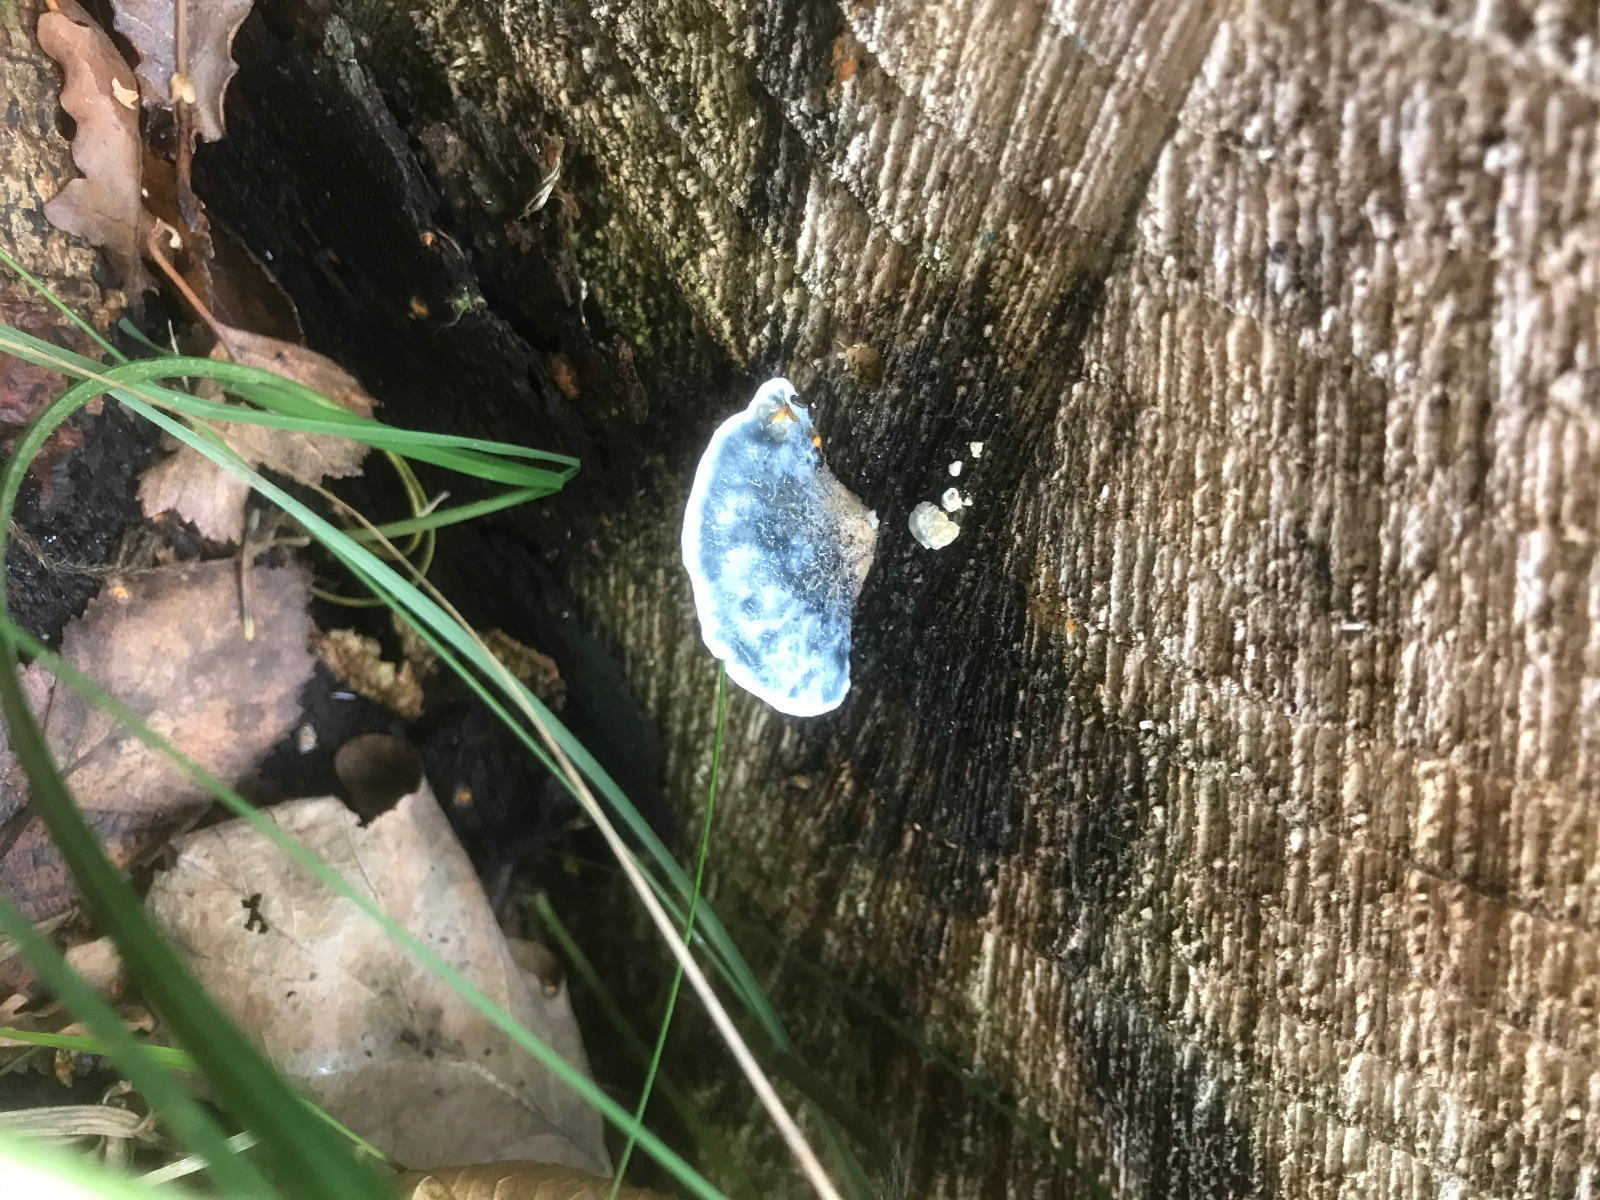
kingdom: Fungi
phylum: Basidiomycota
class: Agaricomycetes
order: Polyporales
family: Polyporaceae
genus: Cyanosporus
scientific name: Cyanosporus caesius
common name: blålig kødporesvamp
